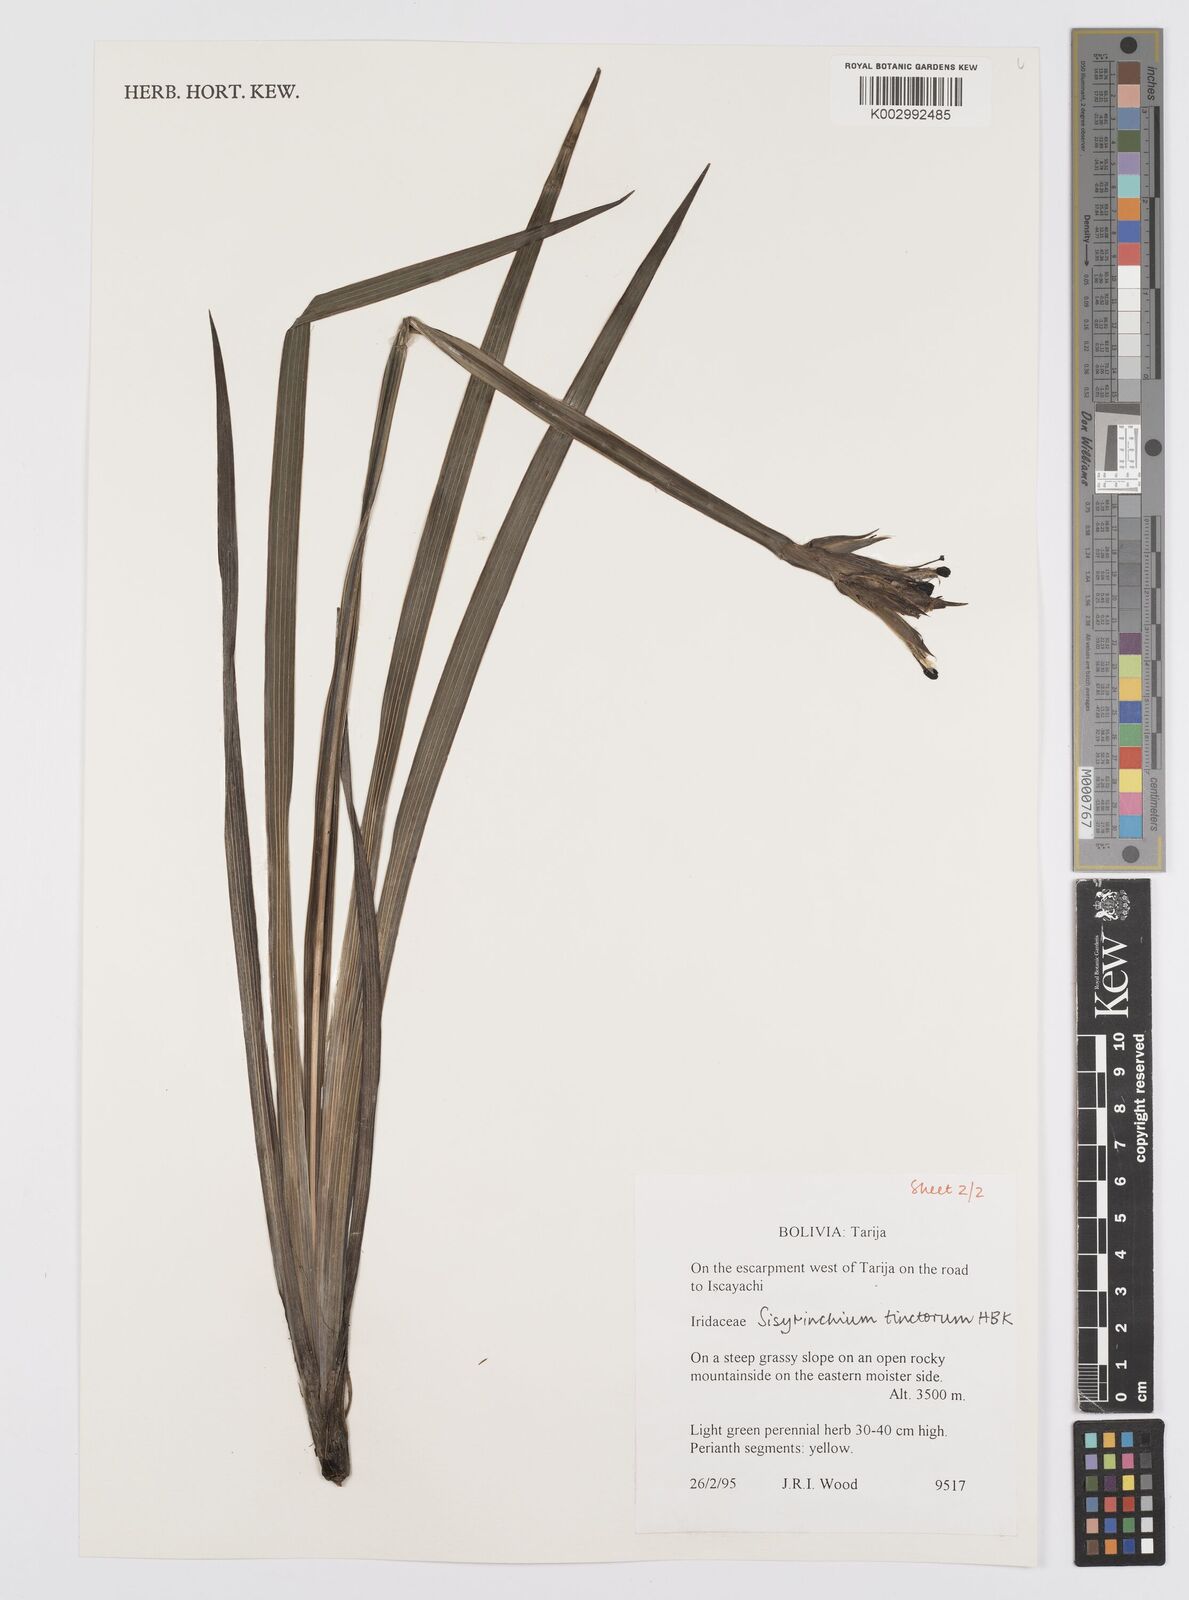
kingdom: Plantae
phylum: Tracheophyta
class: Liliopsida
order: Asparagales
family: Iridaceae
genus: Sisyrinchium
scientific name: Sisyrinchium tinctorium
